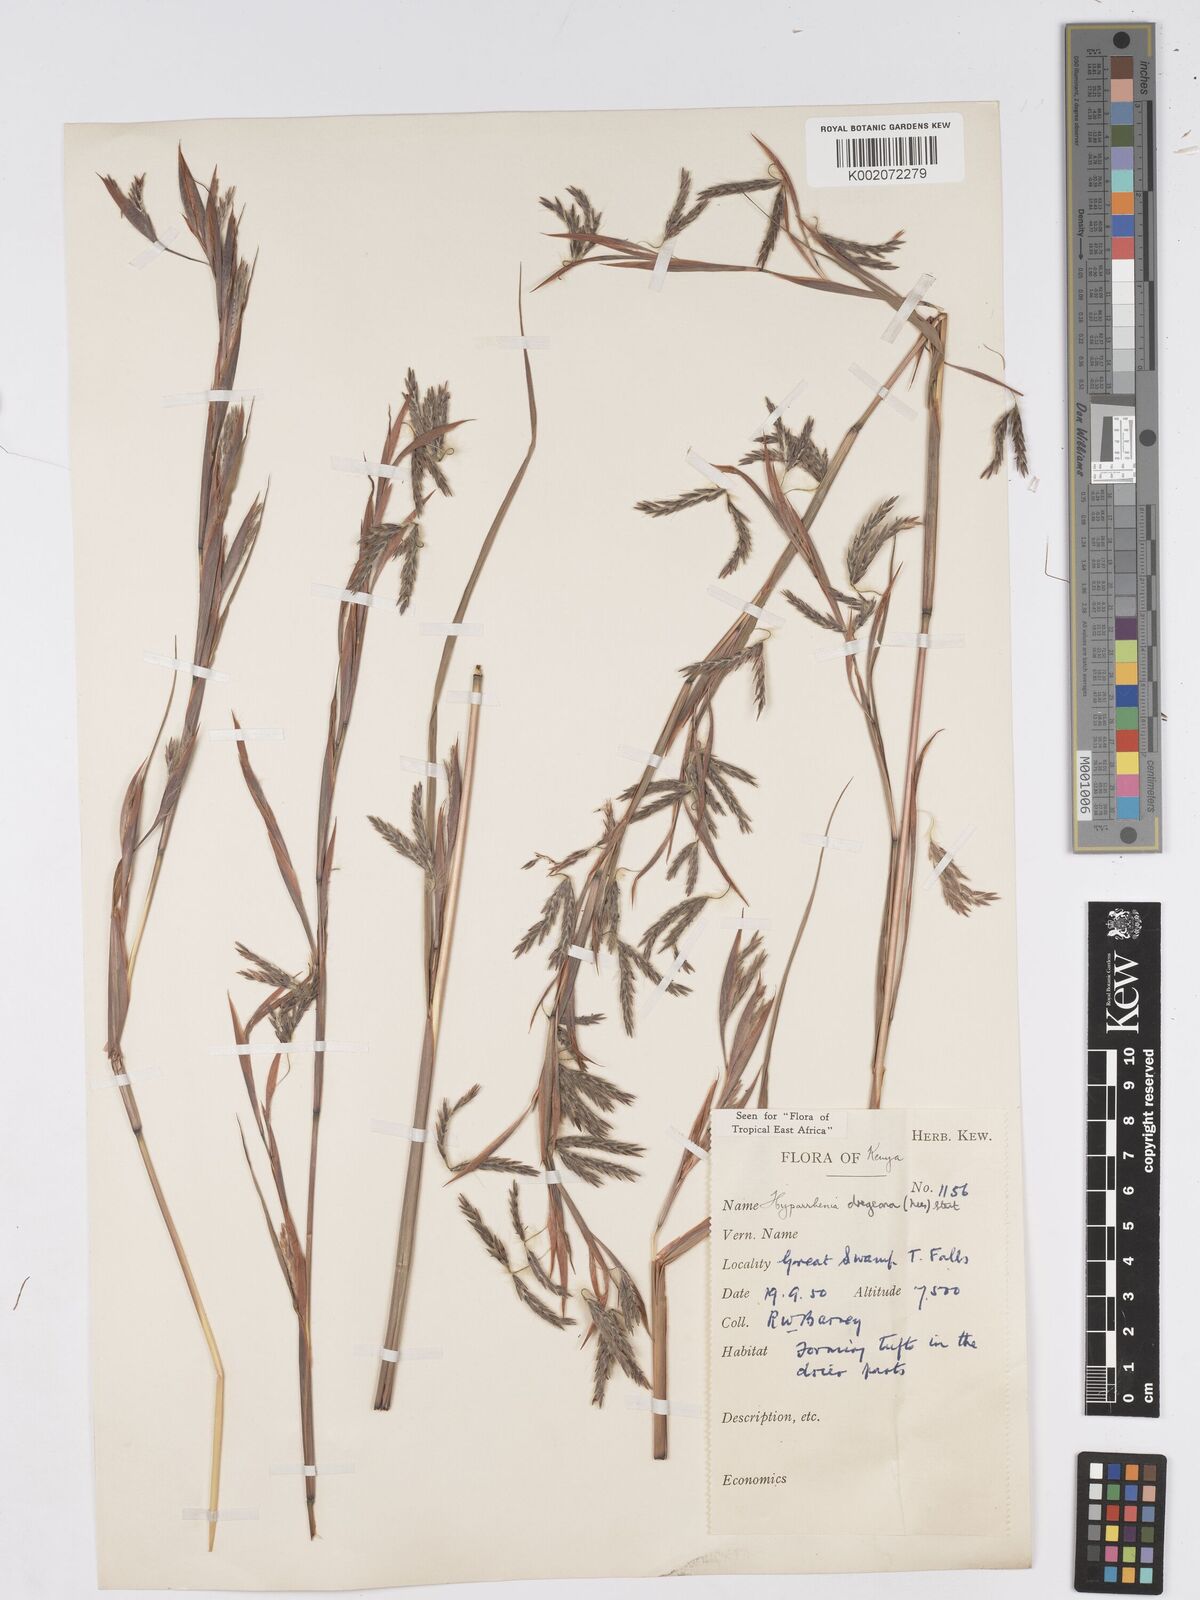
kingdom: Plantae
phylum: Tracheophyta
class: Liliopsida
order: Poales
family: Poaceae
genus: Hyparrhenia
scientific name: Hyparrhenia dregeana
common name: Silky thatching grass
